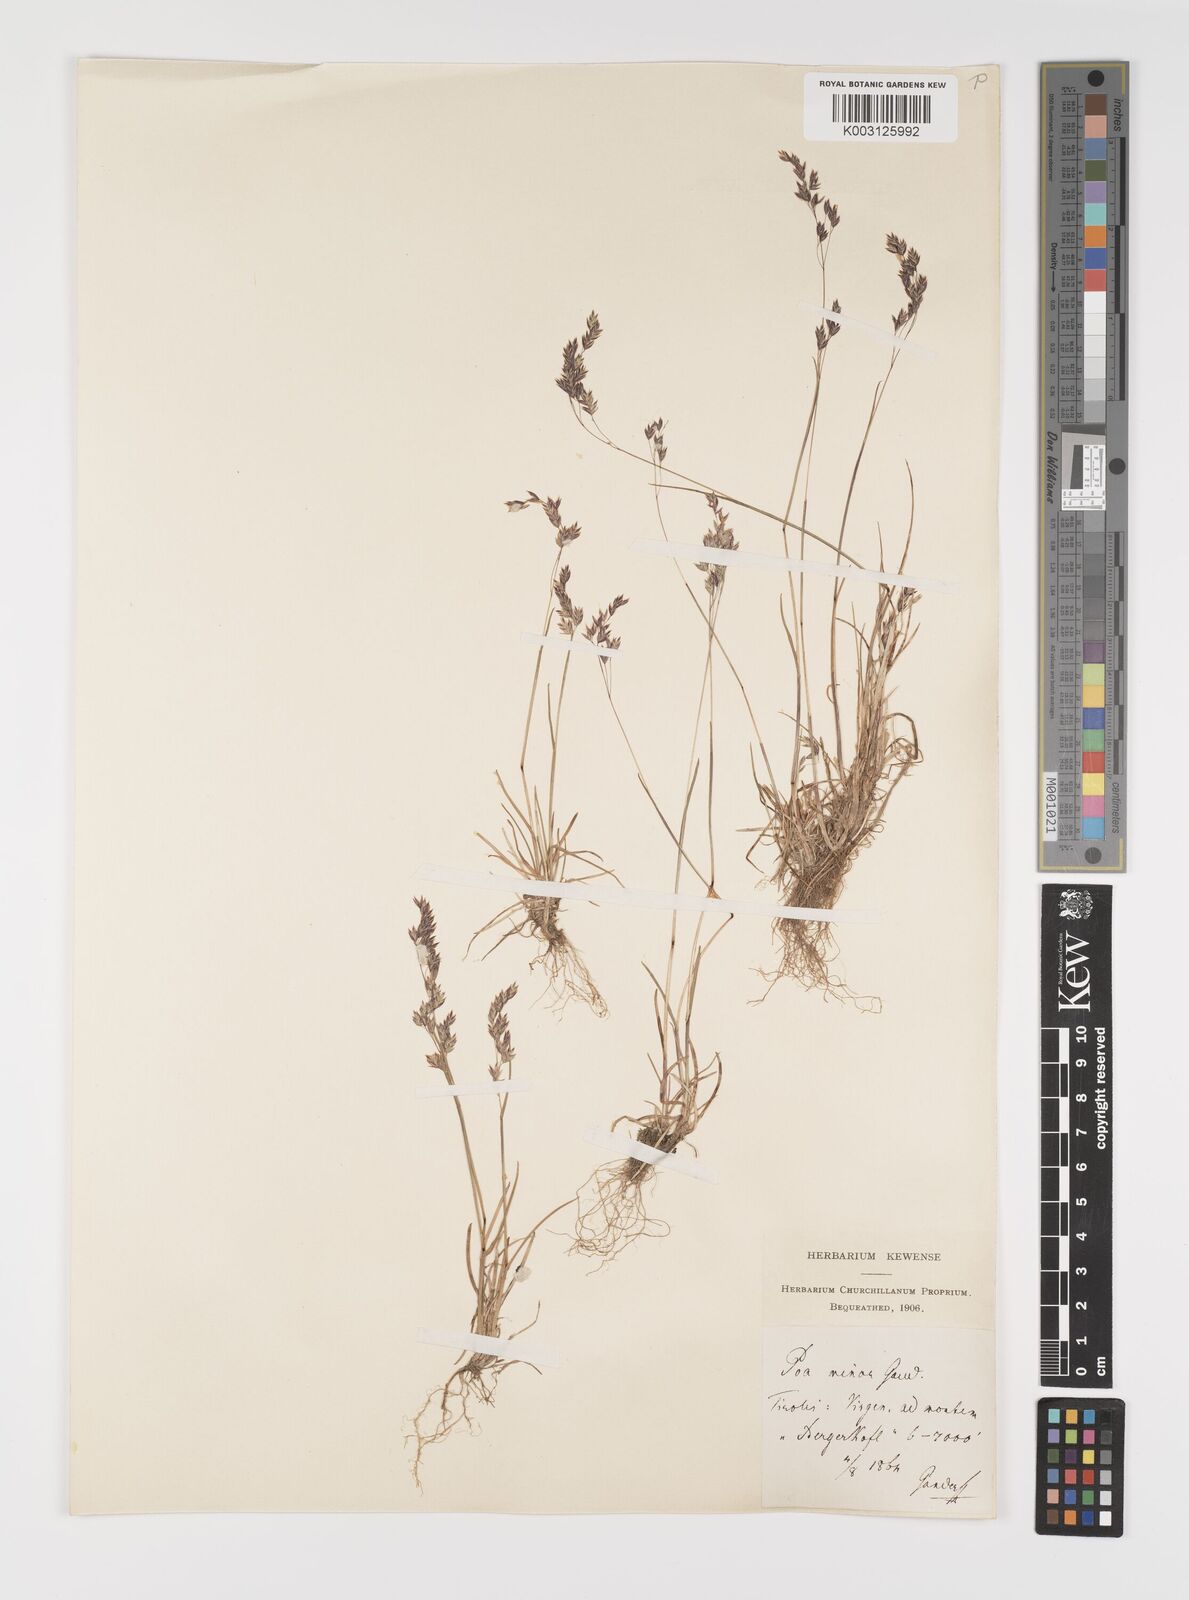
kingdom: Plantae
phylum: Tracheophyta
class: Liliopsida
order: Poales
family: Poaceae
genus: Poa
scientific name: Poa minor
